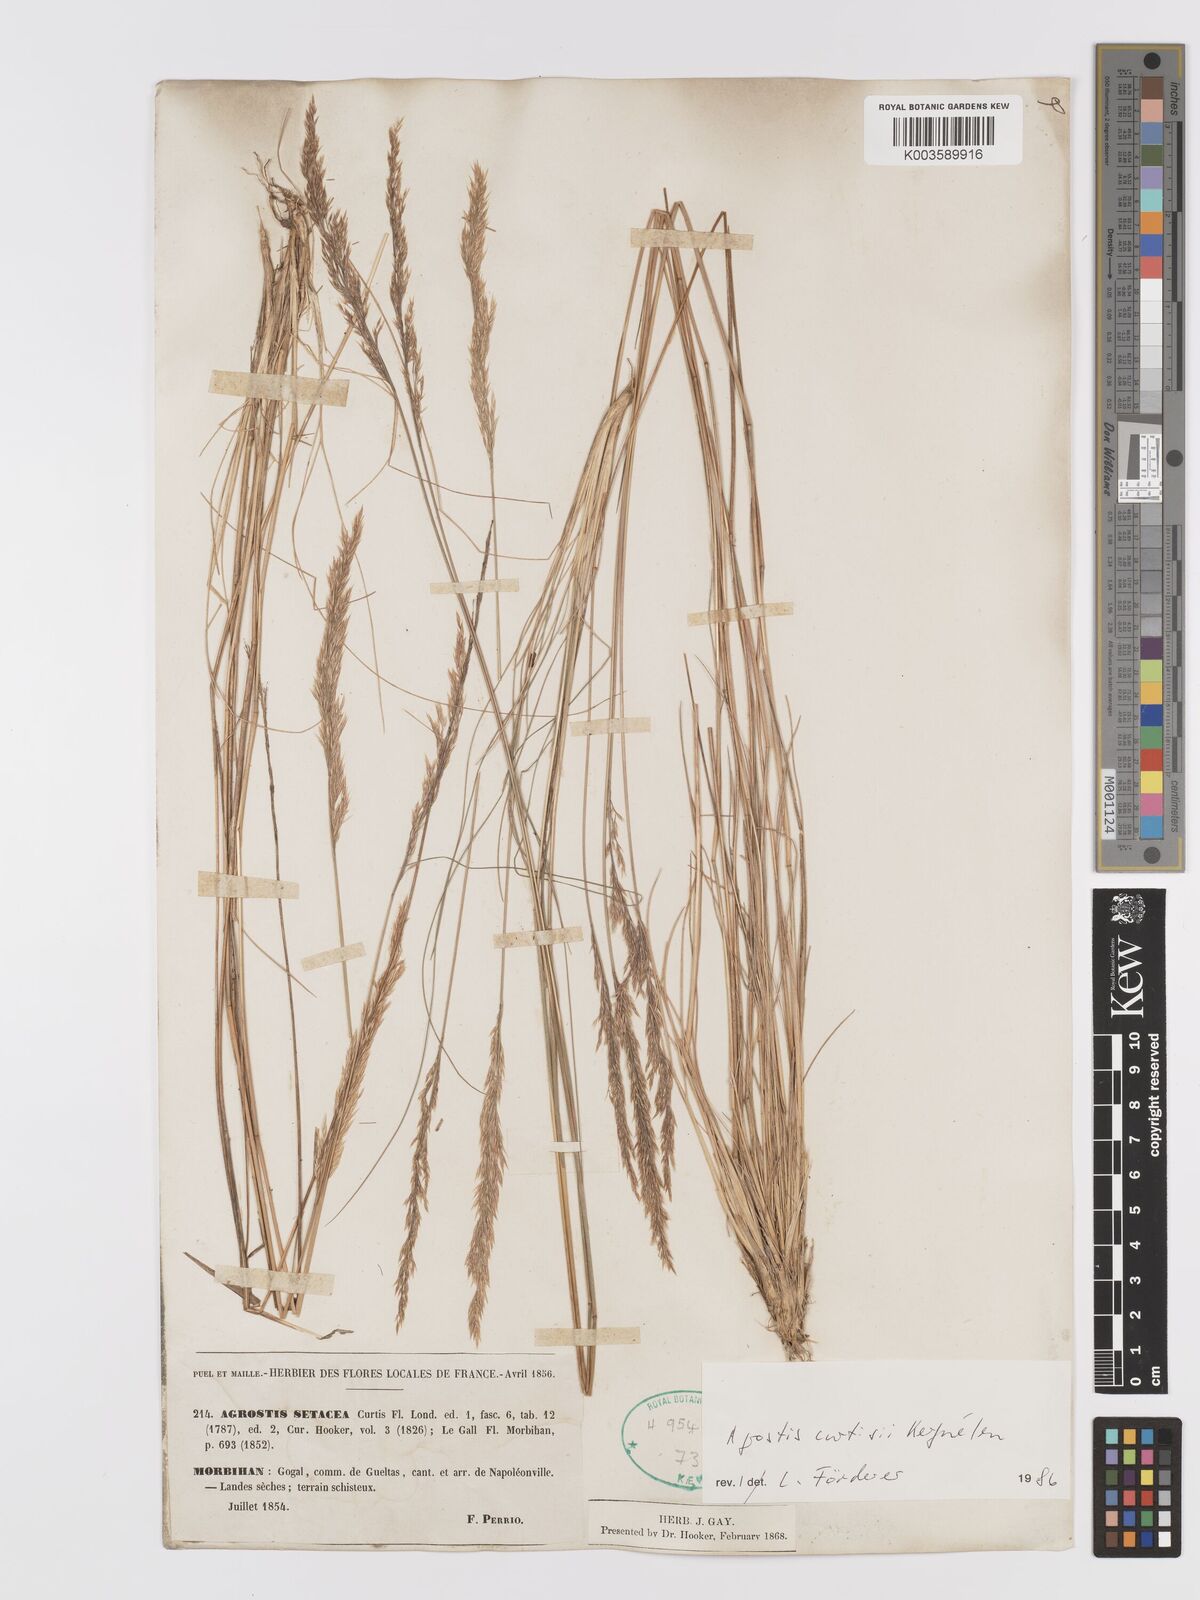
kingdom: Plantae
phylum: Tracheophyta
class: Liliopsida
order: Poales
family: Poaceae
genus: Alpagrostis
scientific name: Alpagrostis setacea
